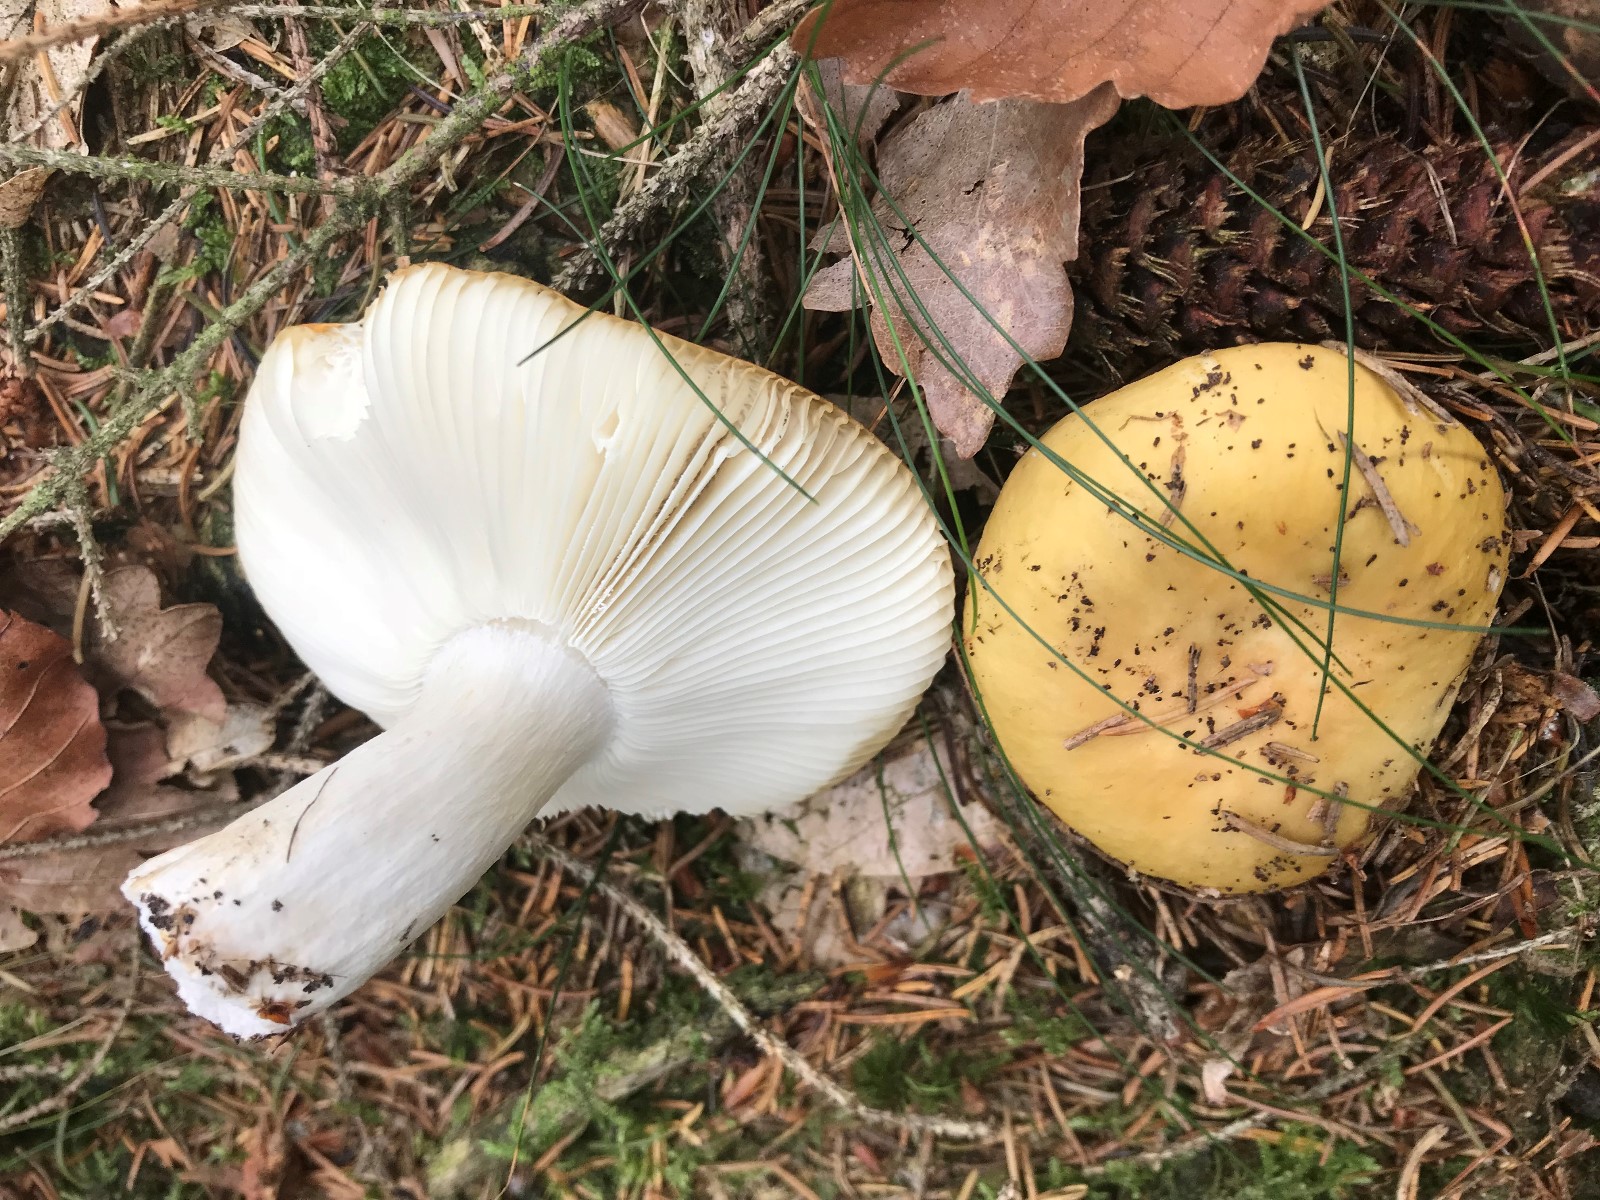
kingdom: Fungi
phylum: Basidiomycota
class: Agaricomycetes
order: Russulales
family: Russulaceae
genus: Russula
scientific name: Russula ochroleuca
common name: okkergul skørhat
